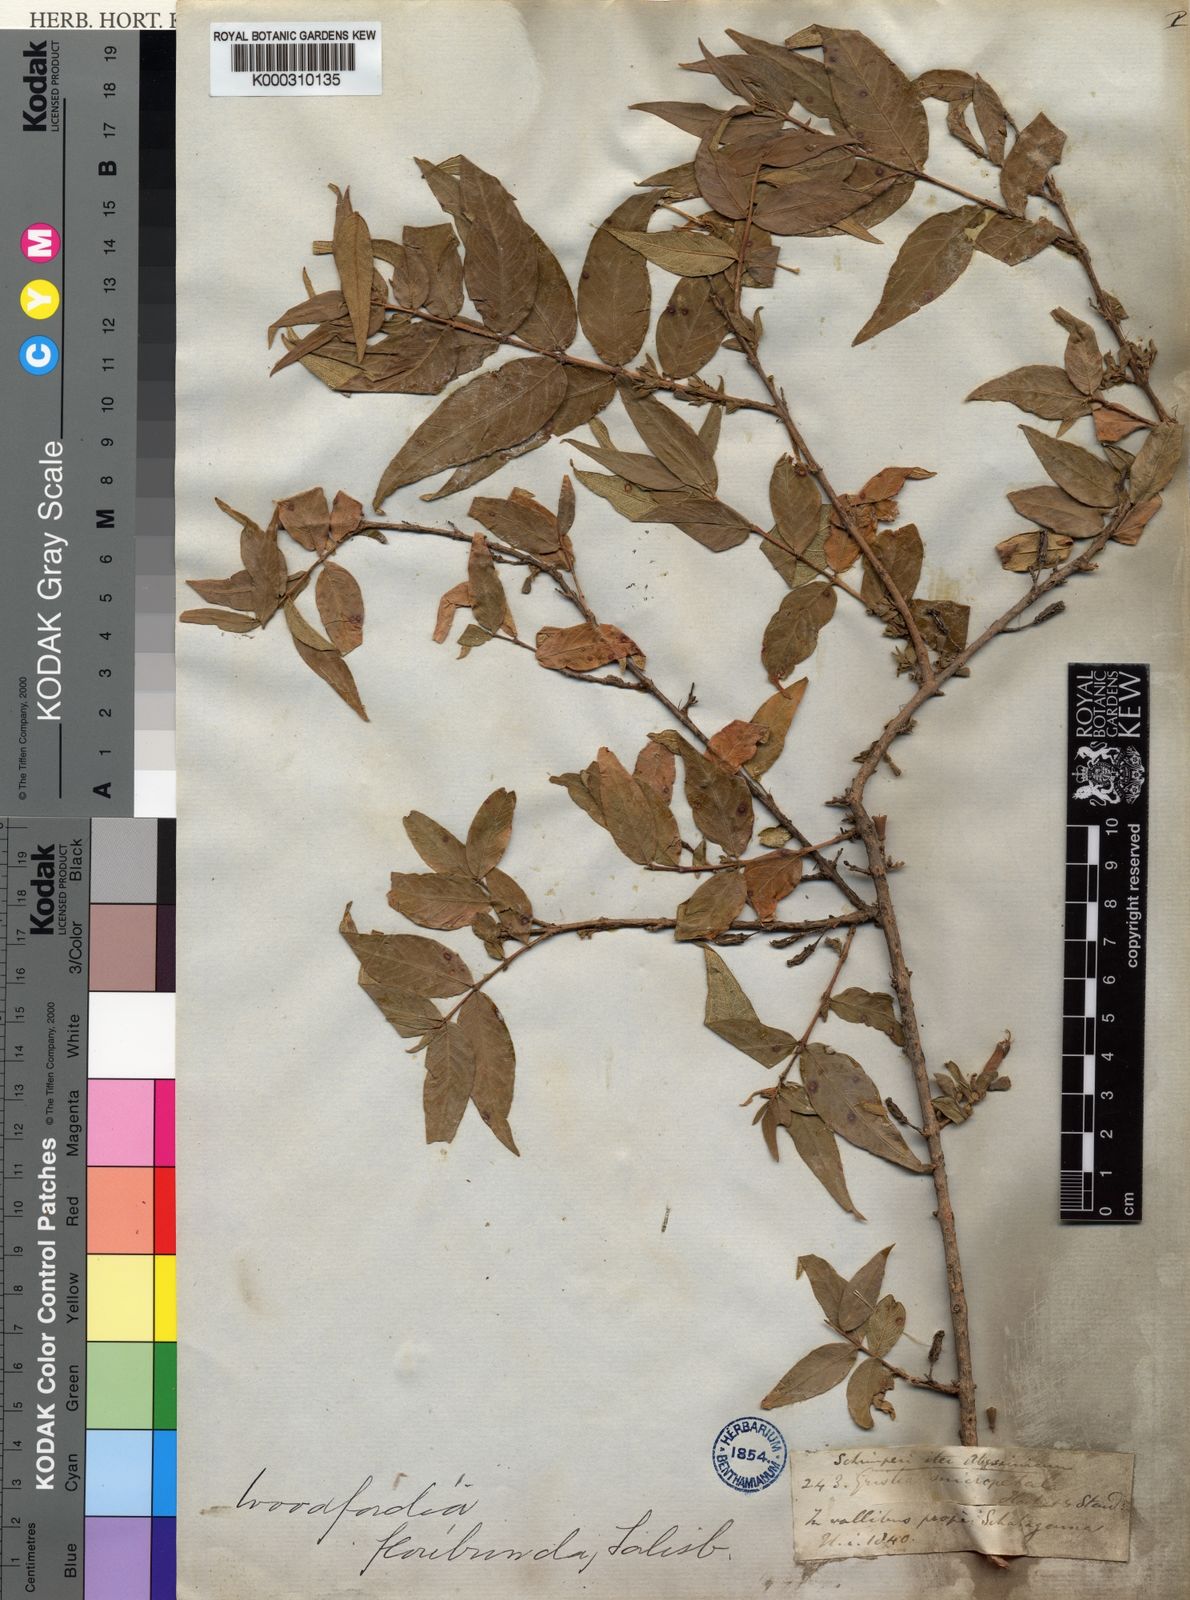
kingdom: Plantae
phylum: Tracheophyta
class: Magnoliopsida
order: Myrtales
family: Lythraceae
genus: Woodfordia
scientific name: Woodfordia uniflora
